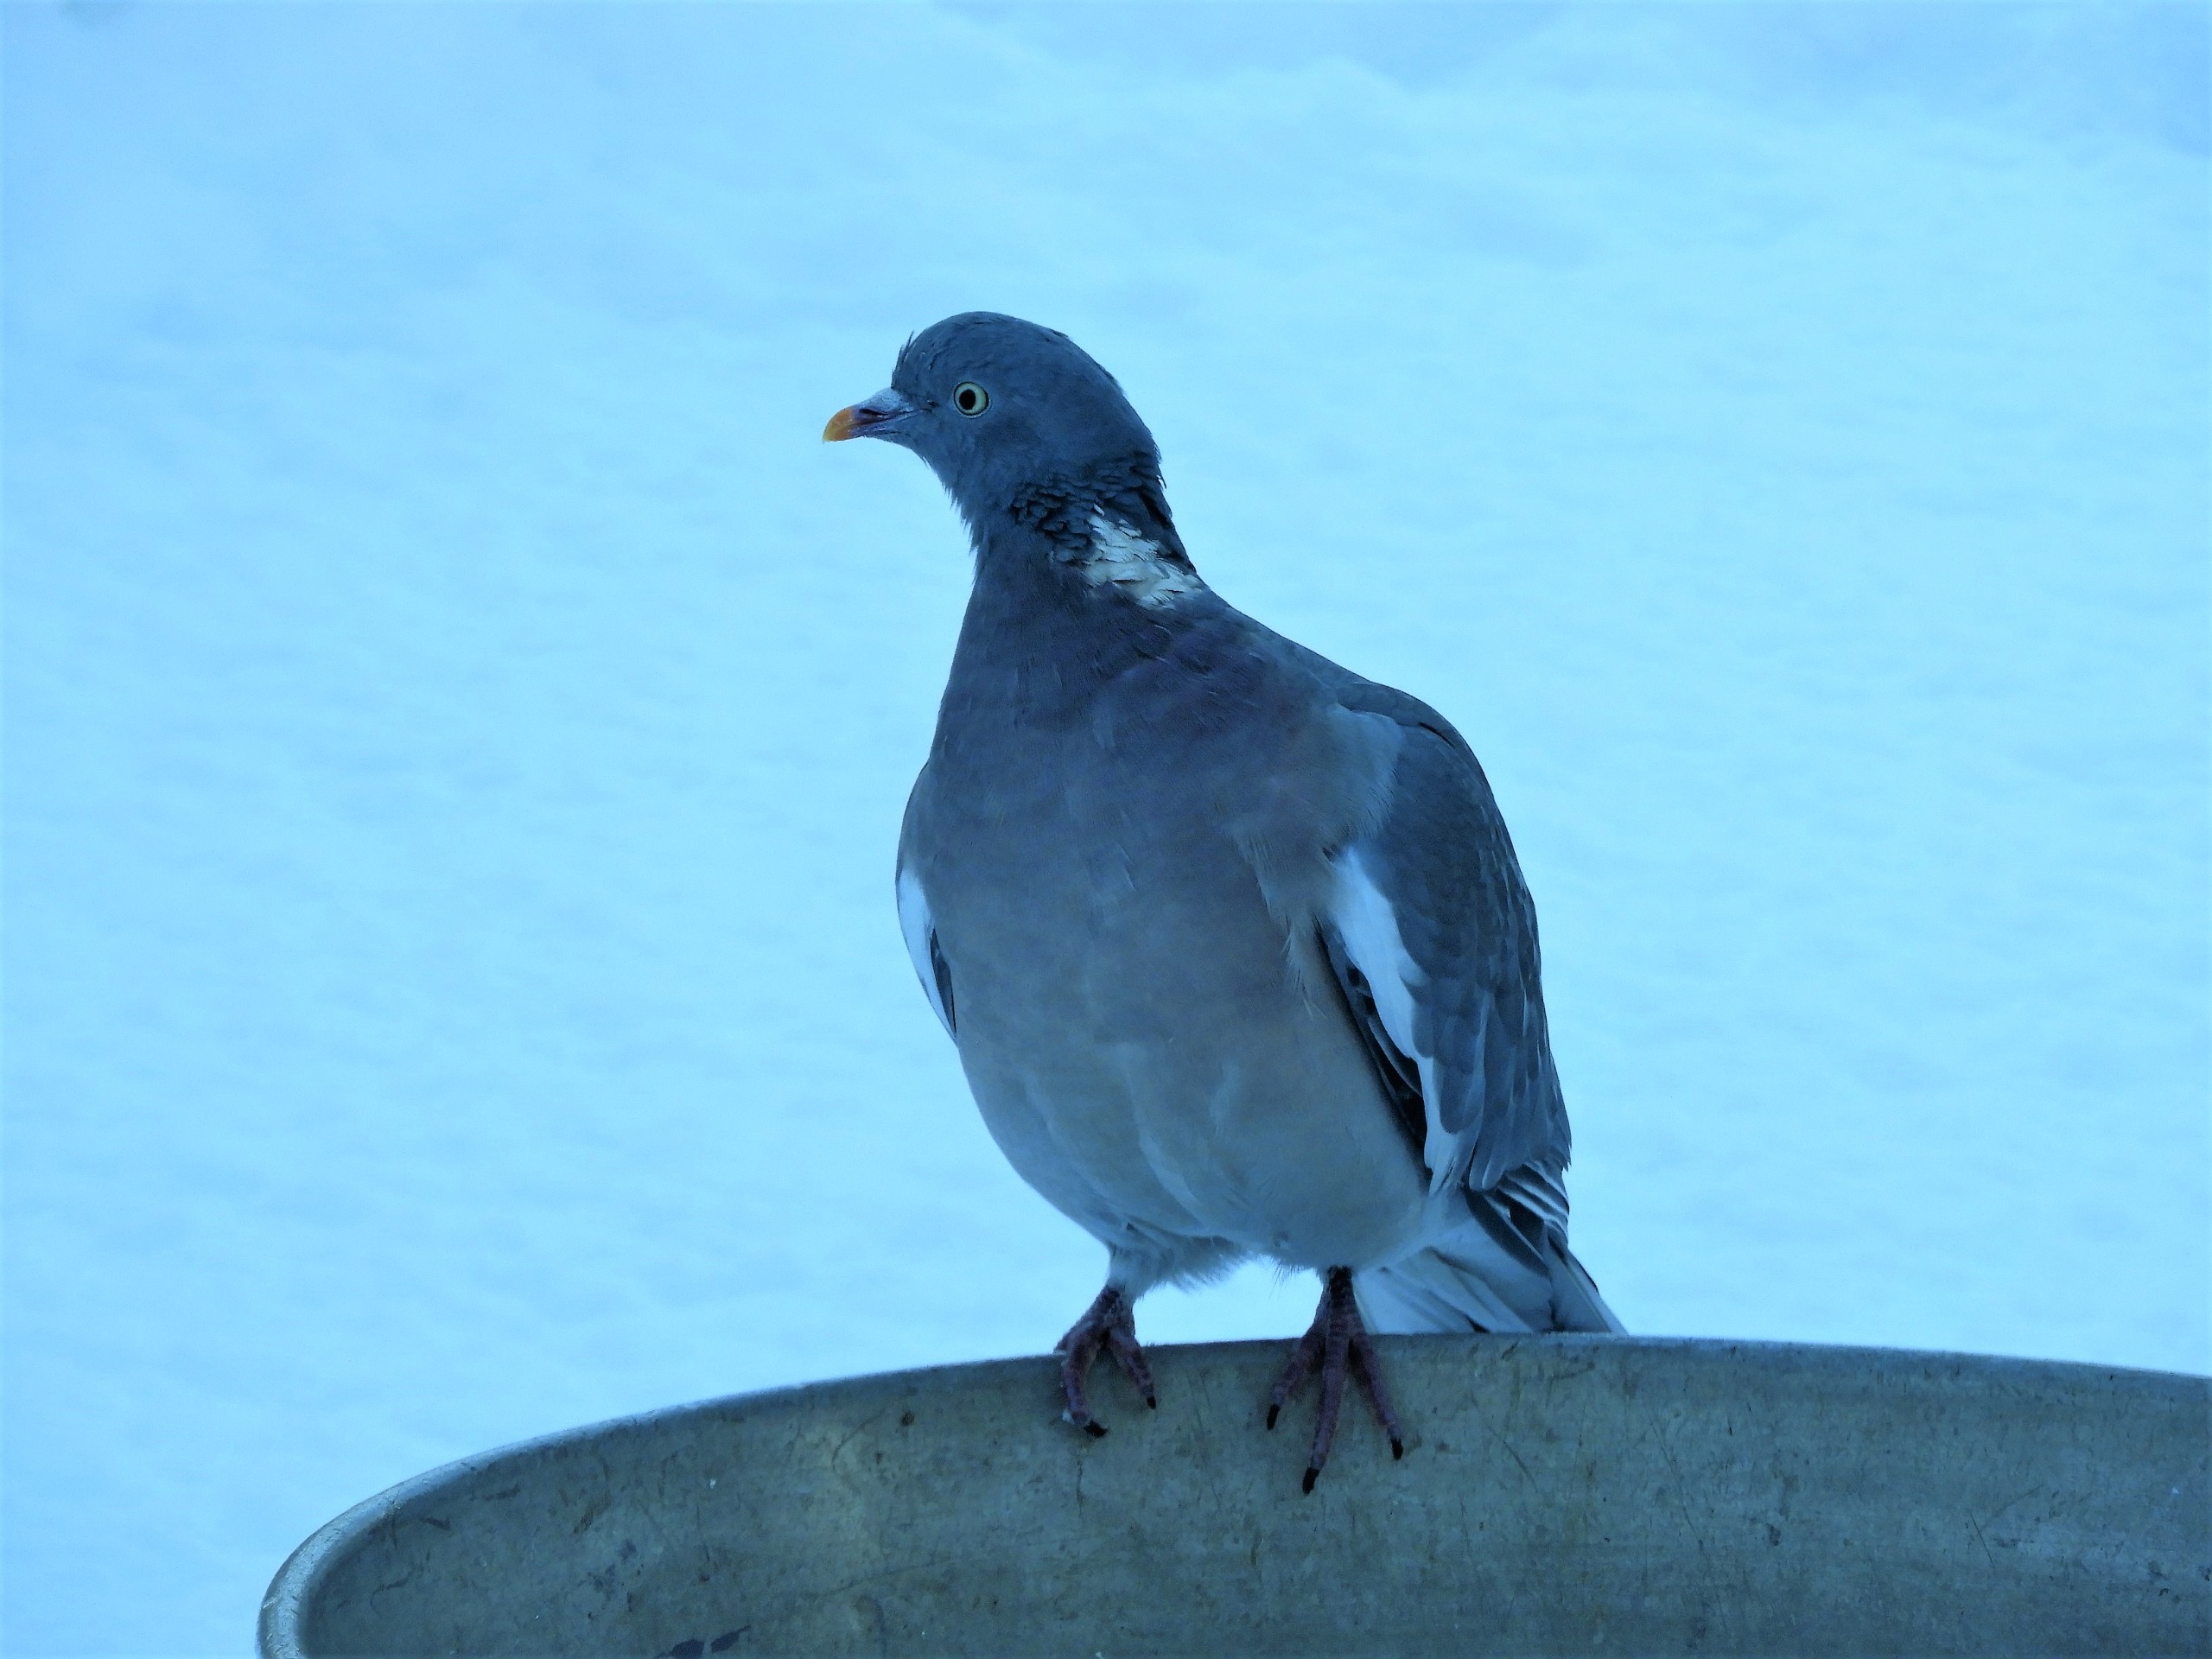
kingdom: Animalia
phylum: Chordata
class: Aves
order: Columbiformes
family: Columbidae
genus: Columba
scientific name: Columba palumbus
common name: Ringdue
